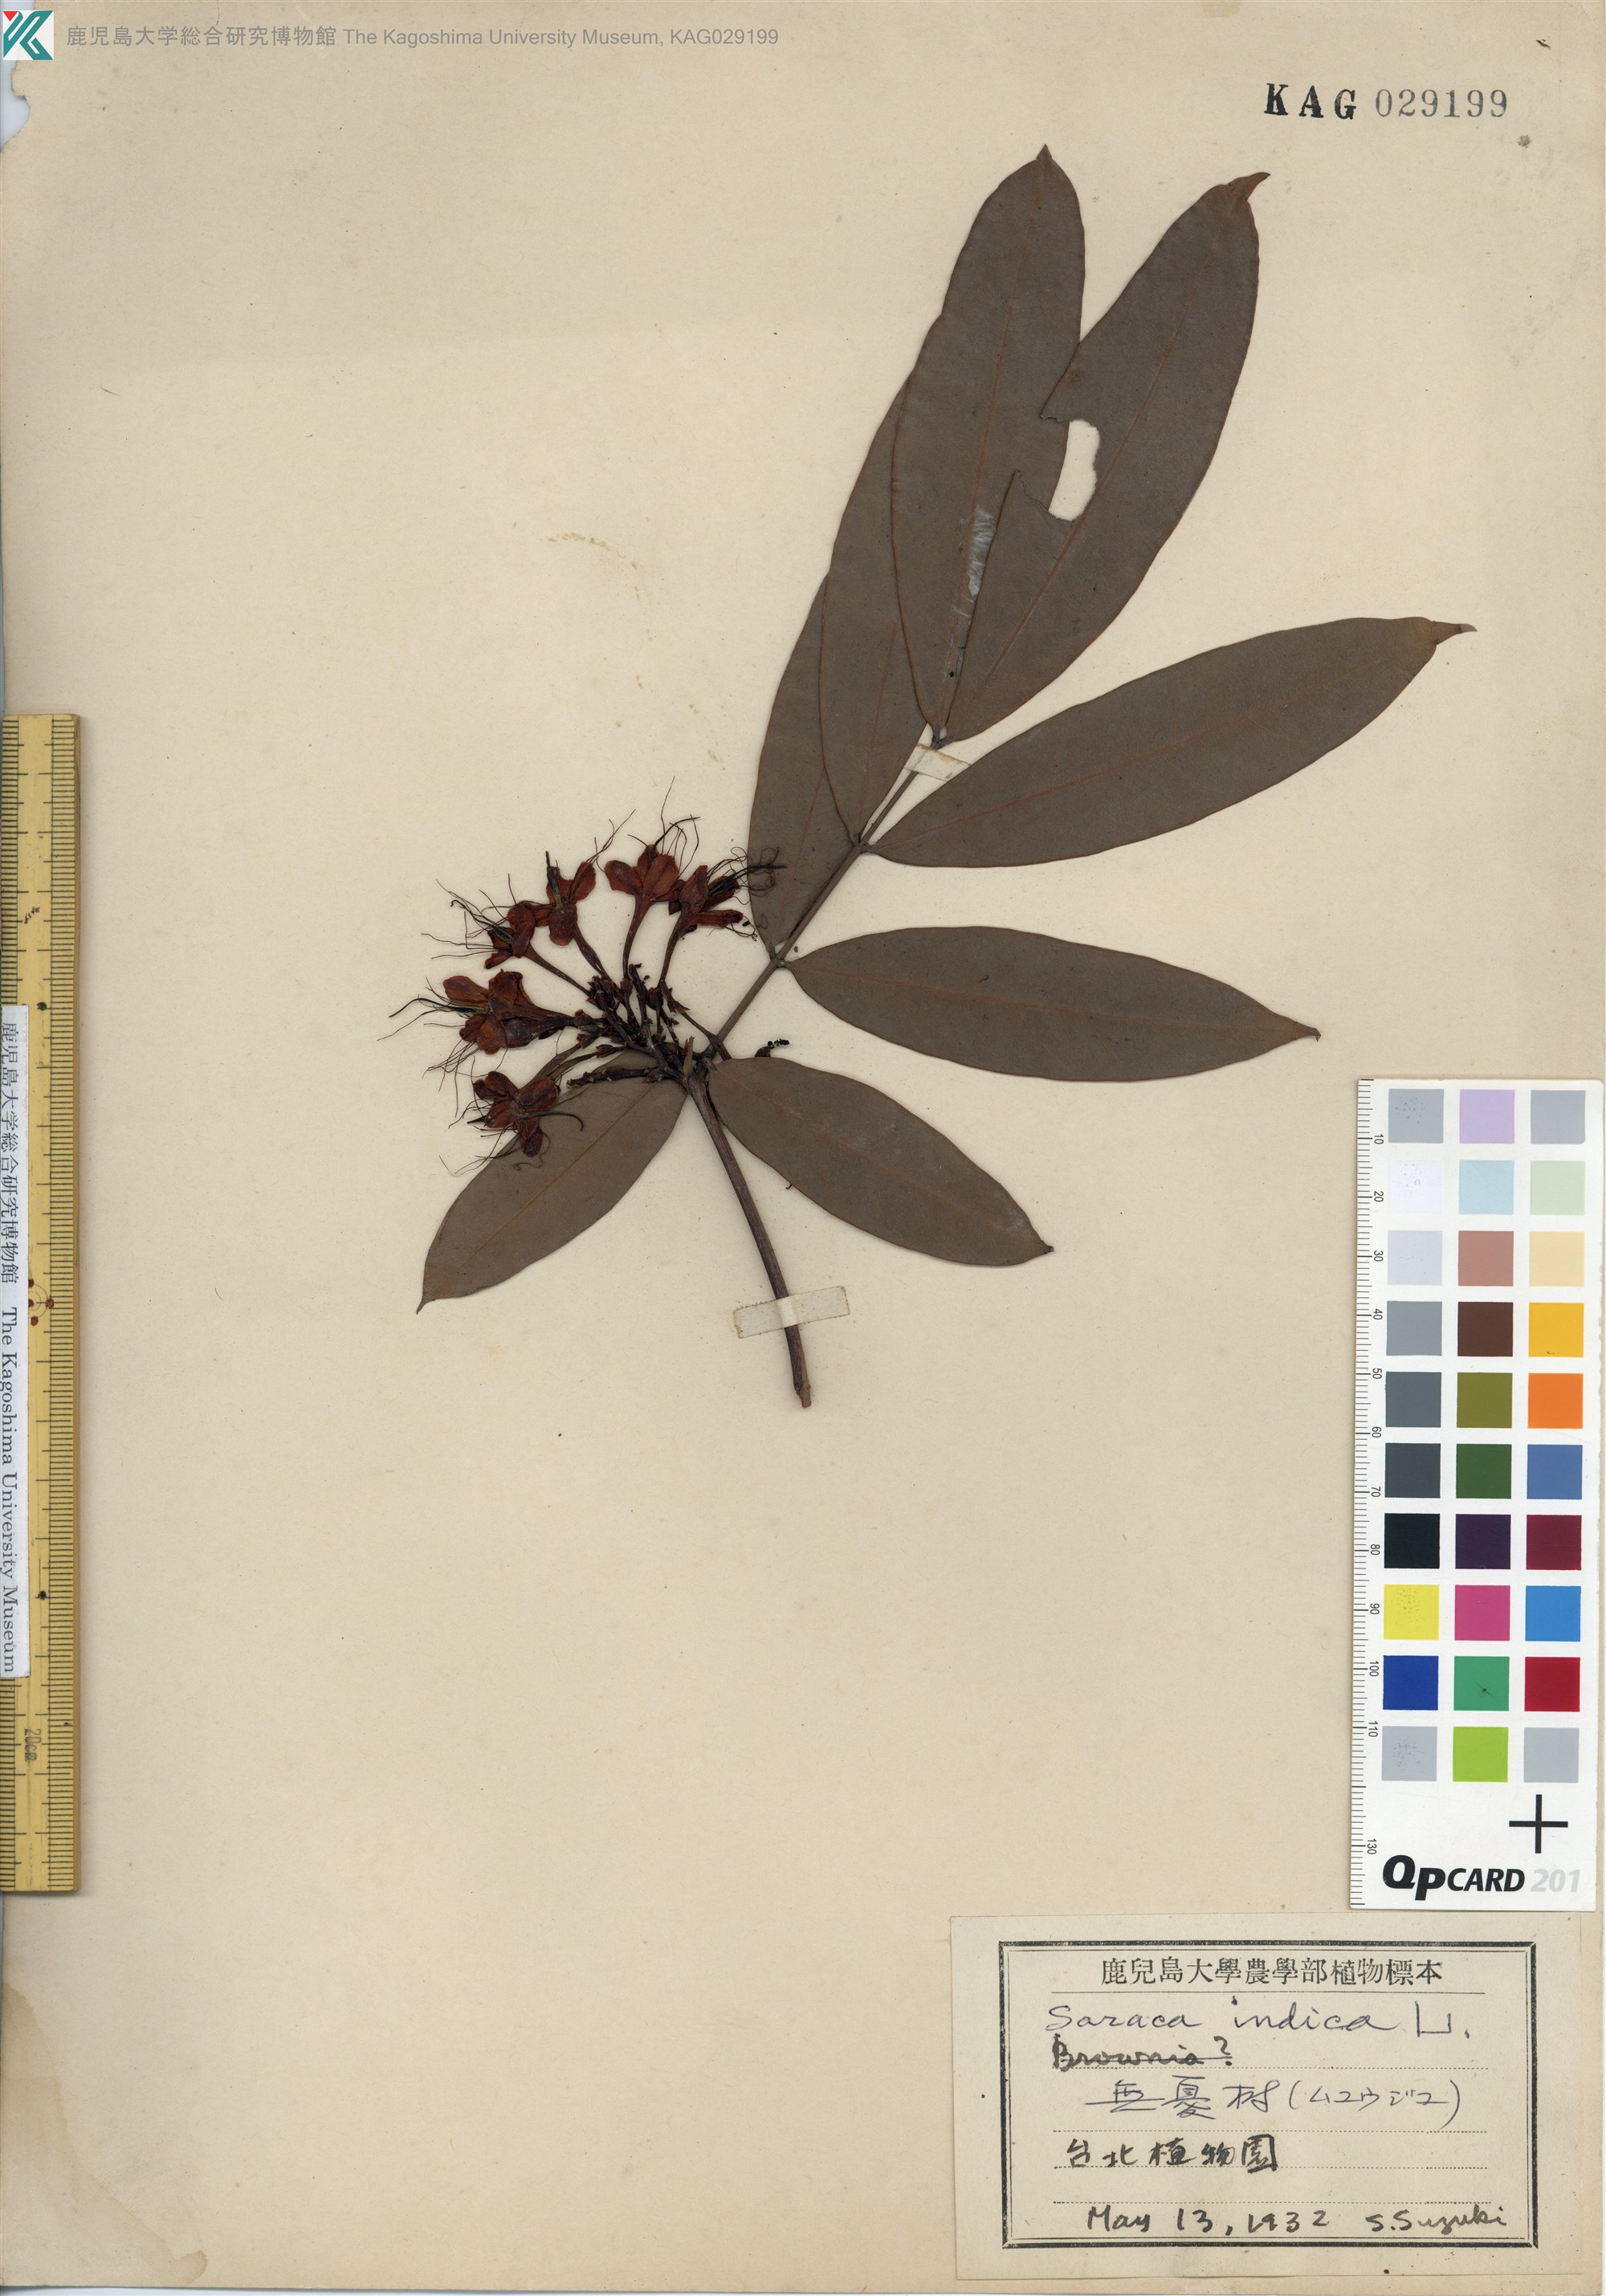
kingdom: Plantae
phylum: Tracheophyta
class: Magnoliopsida
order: Fabales
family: Fabaceae
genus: Saraca
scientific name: Saraca indica
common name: Asoka-tree
